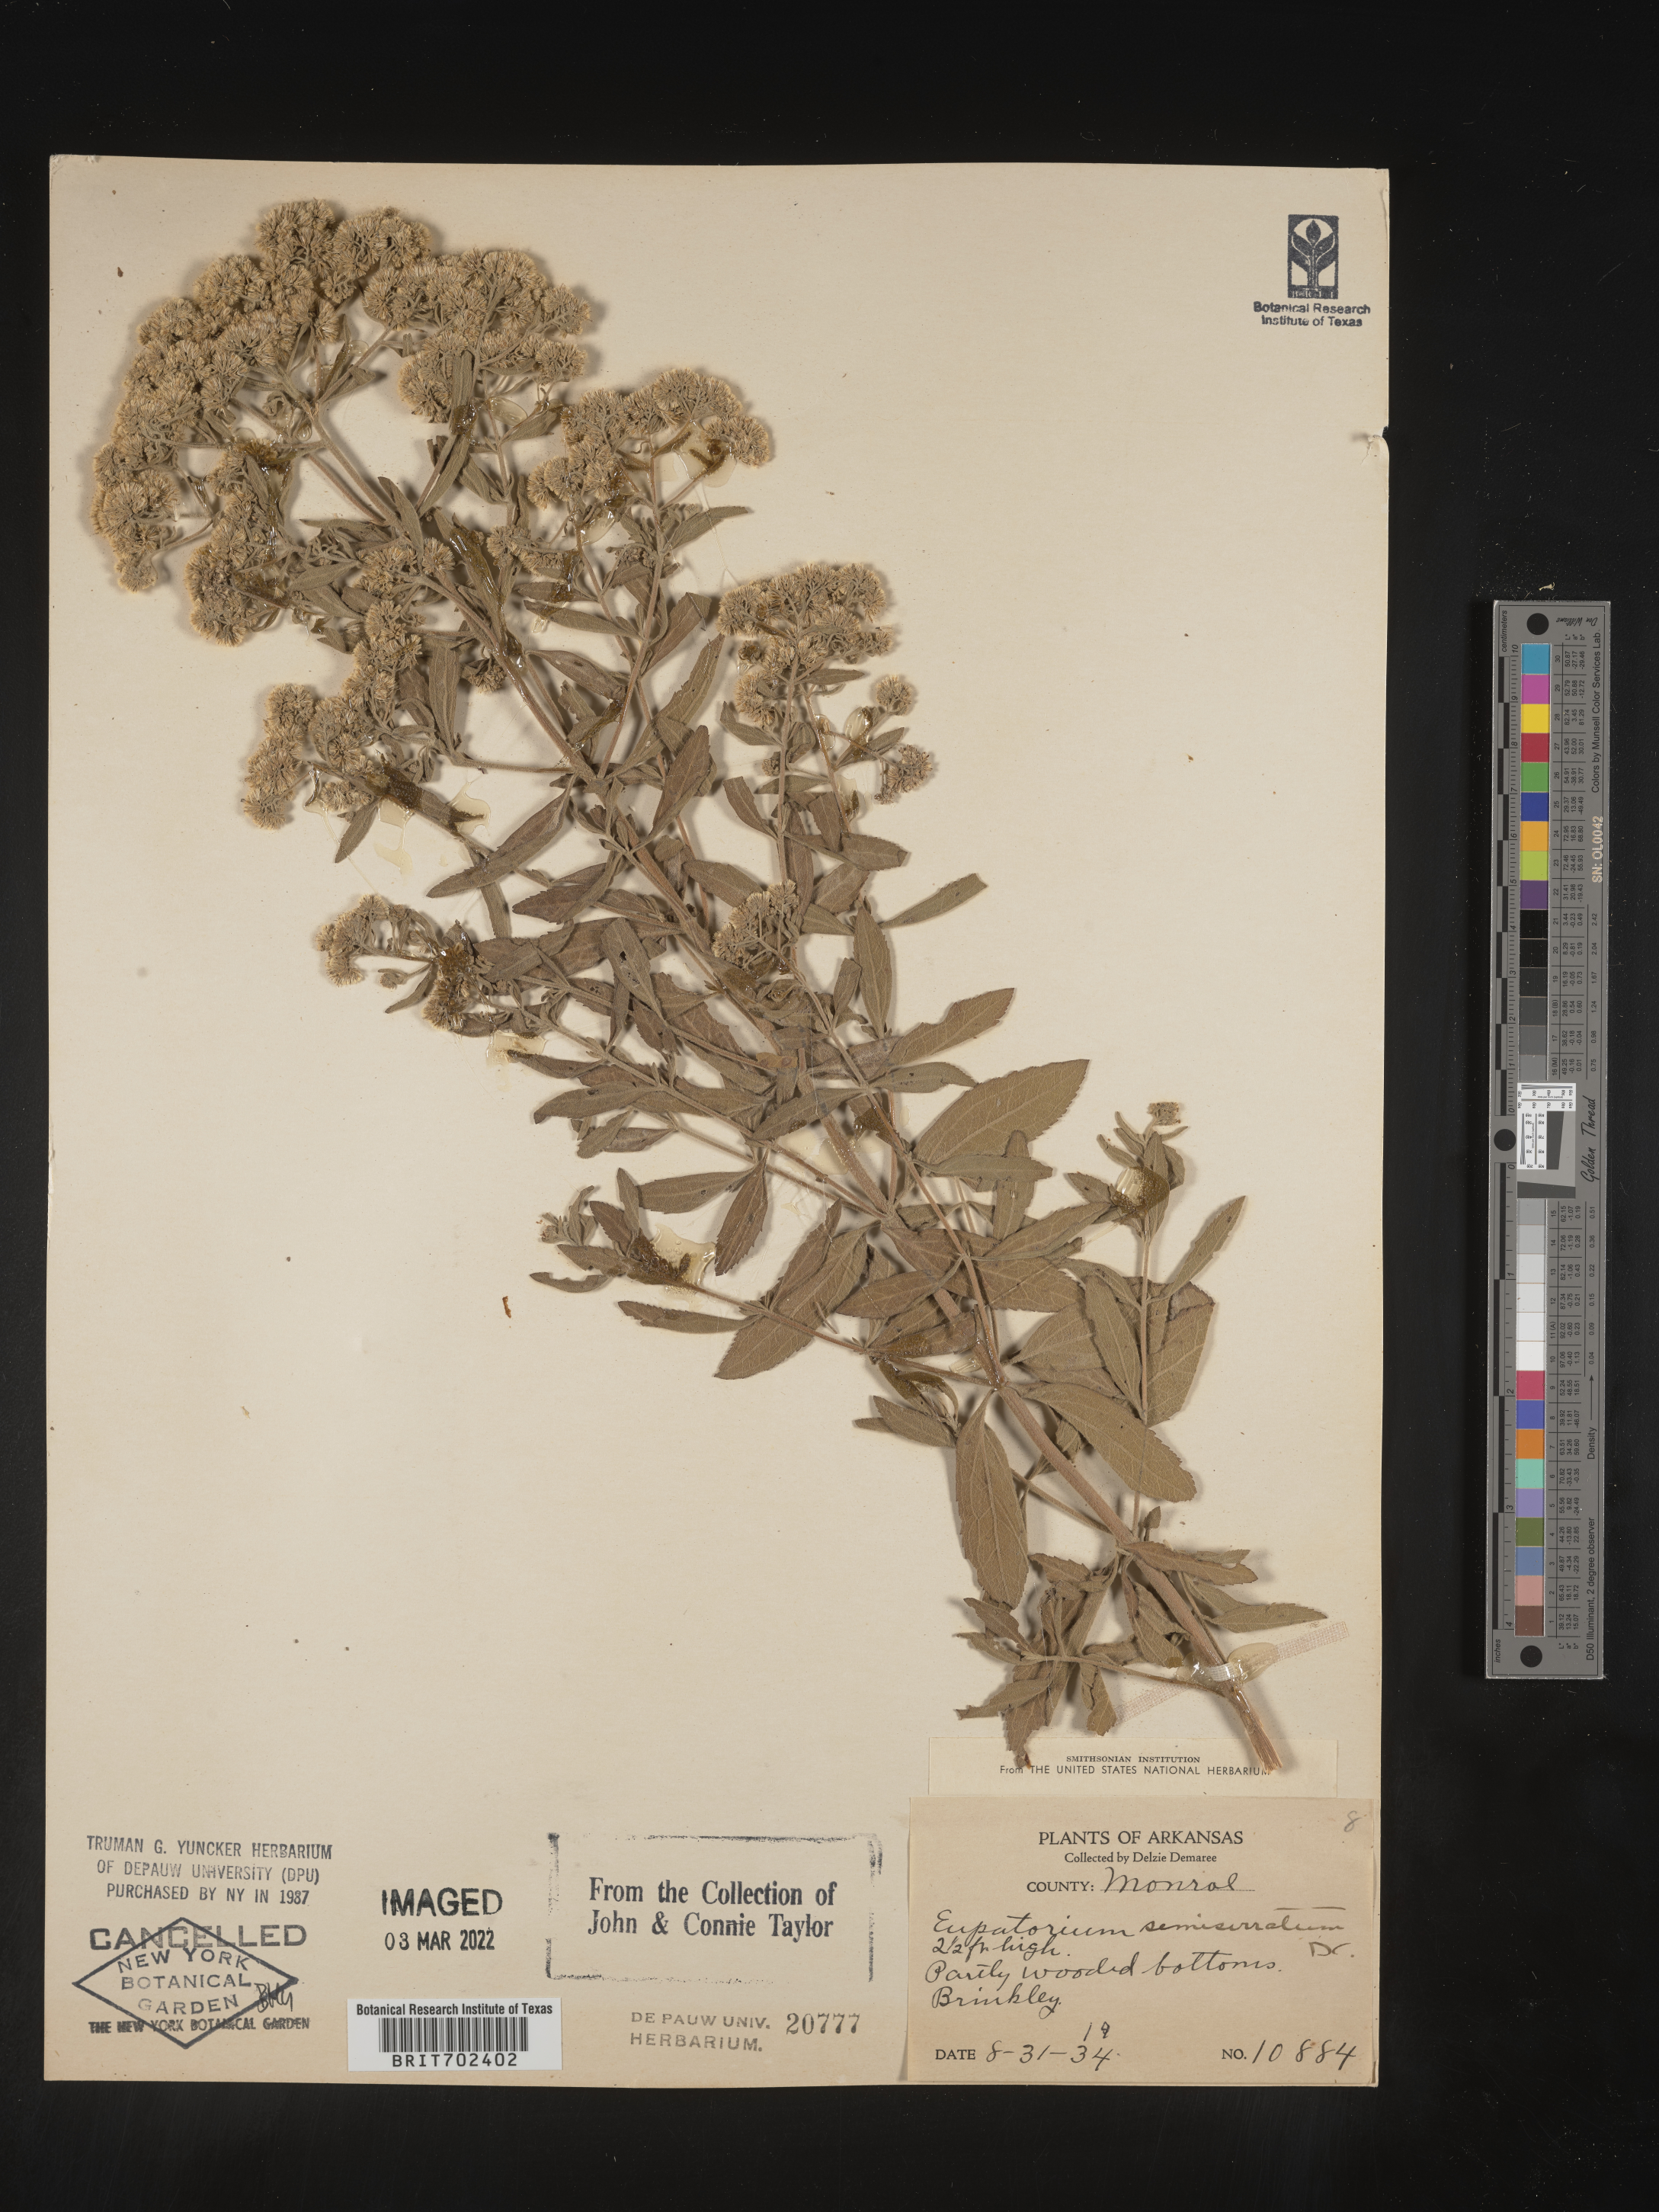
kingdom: Plantae
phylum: Tracheophyta
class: Magnoliopsida
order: Asterales
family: Asteraceae
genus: Eupatorium
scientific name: Eupatorium semiserratum
